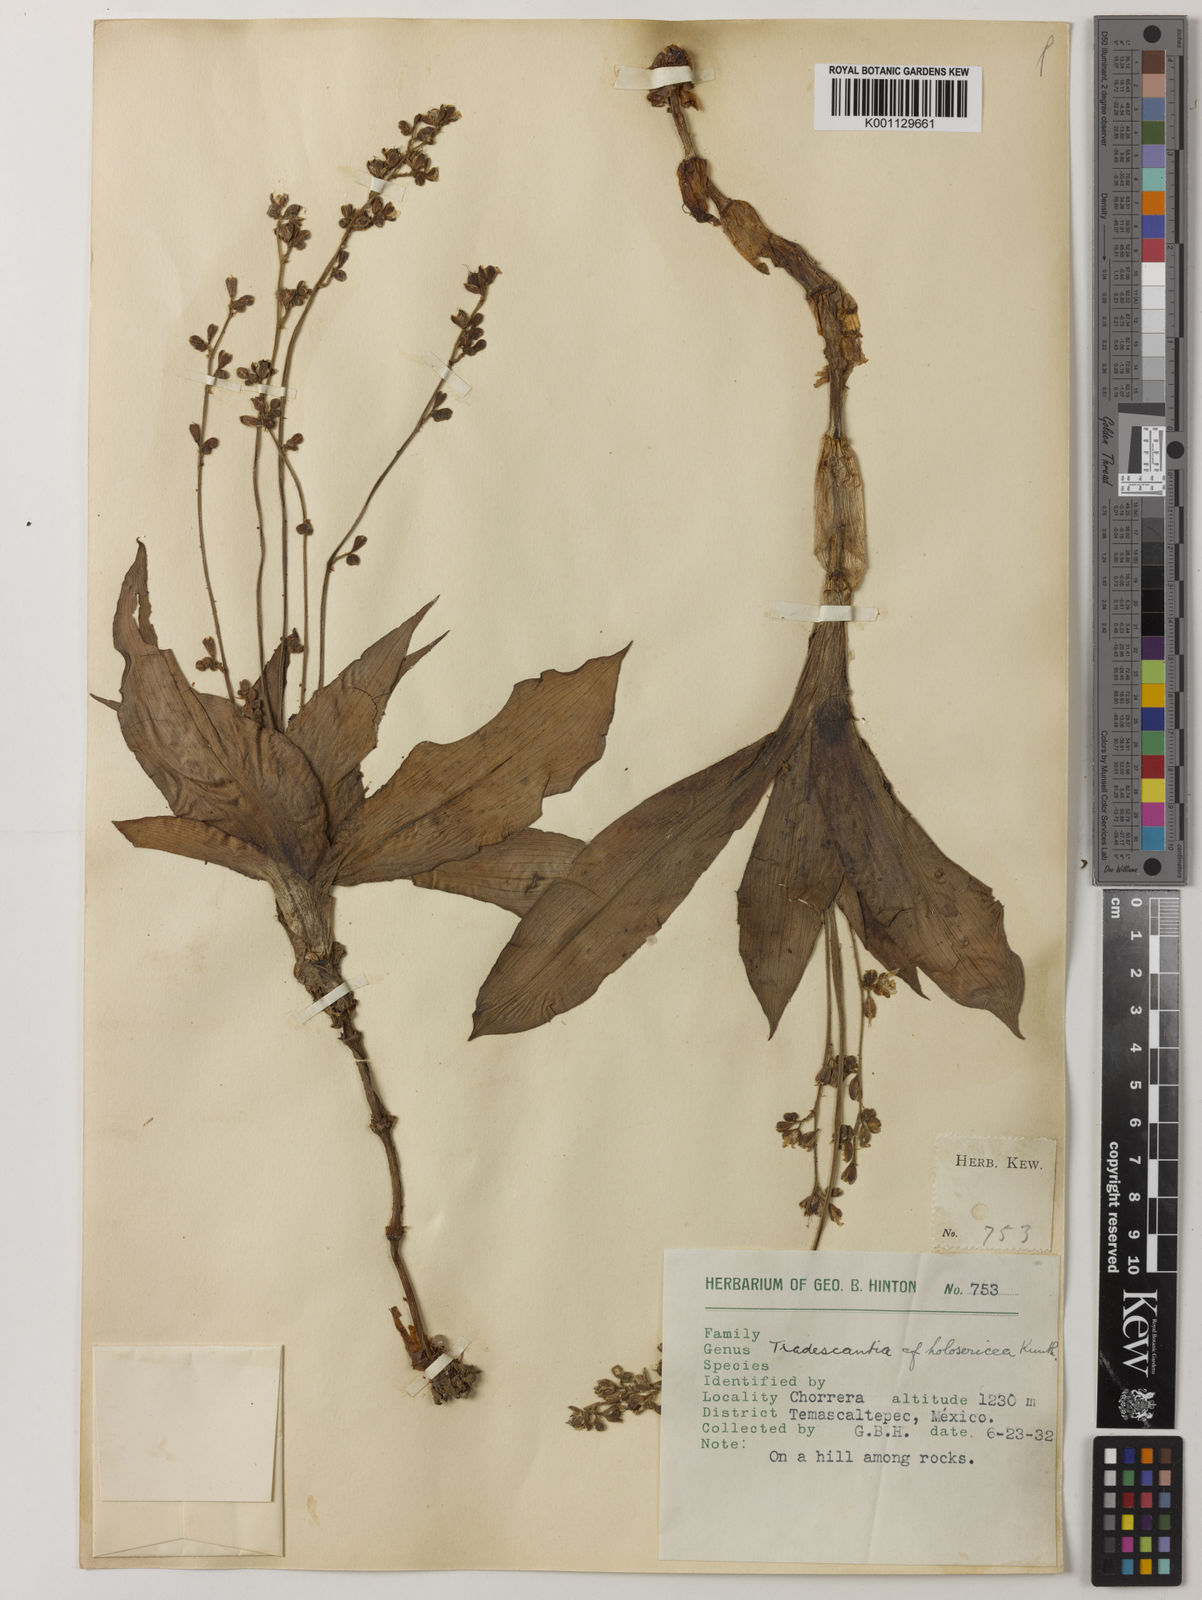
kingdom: Plantae
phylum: Tracheophyta
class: Liliopsida
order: Commelinales
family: Commelinaceae
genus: Thyrsanthemum
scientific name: Thyrsanthemum longifolium
